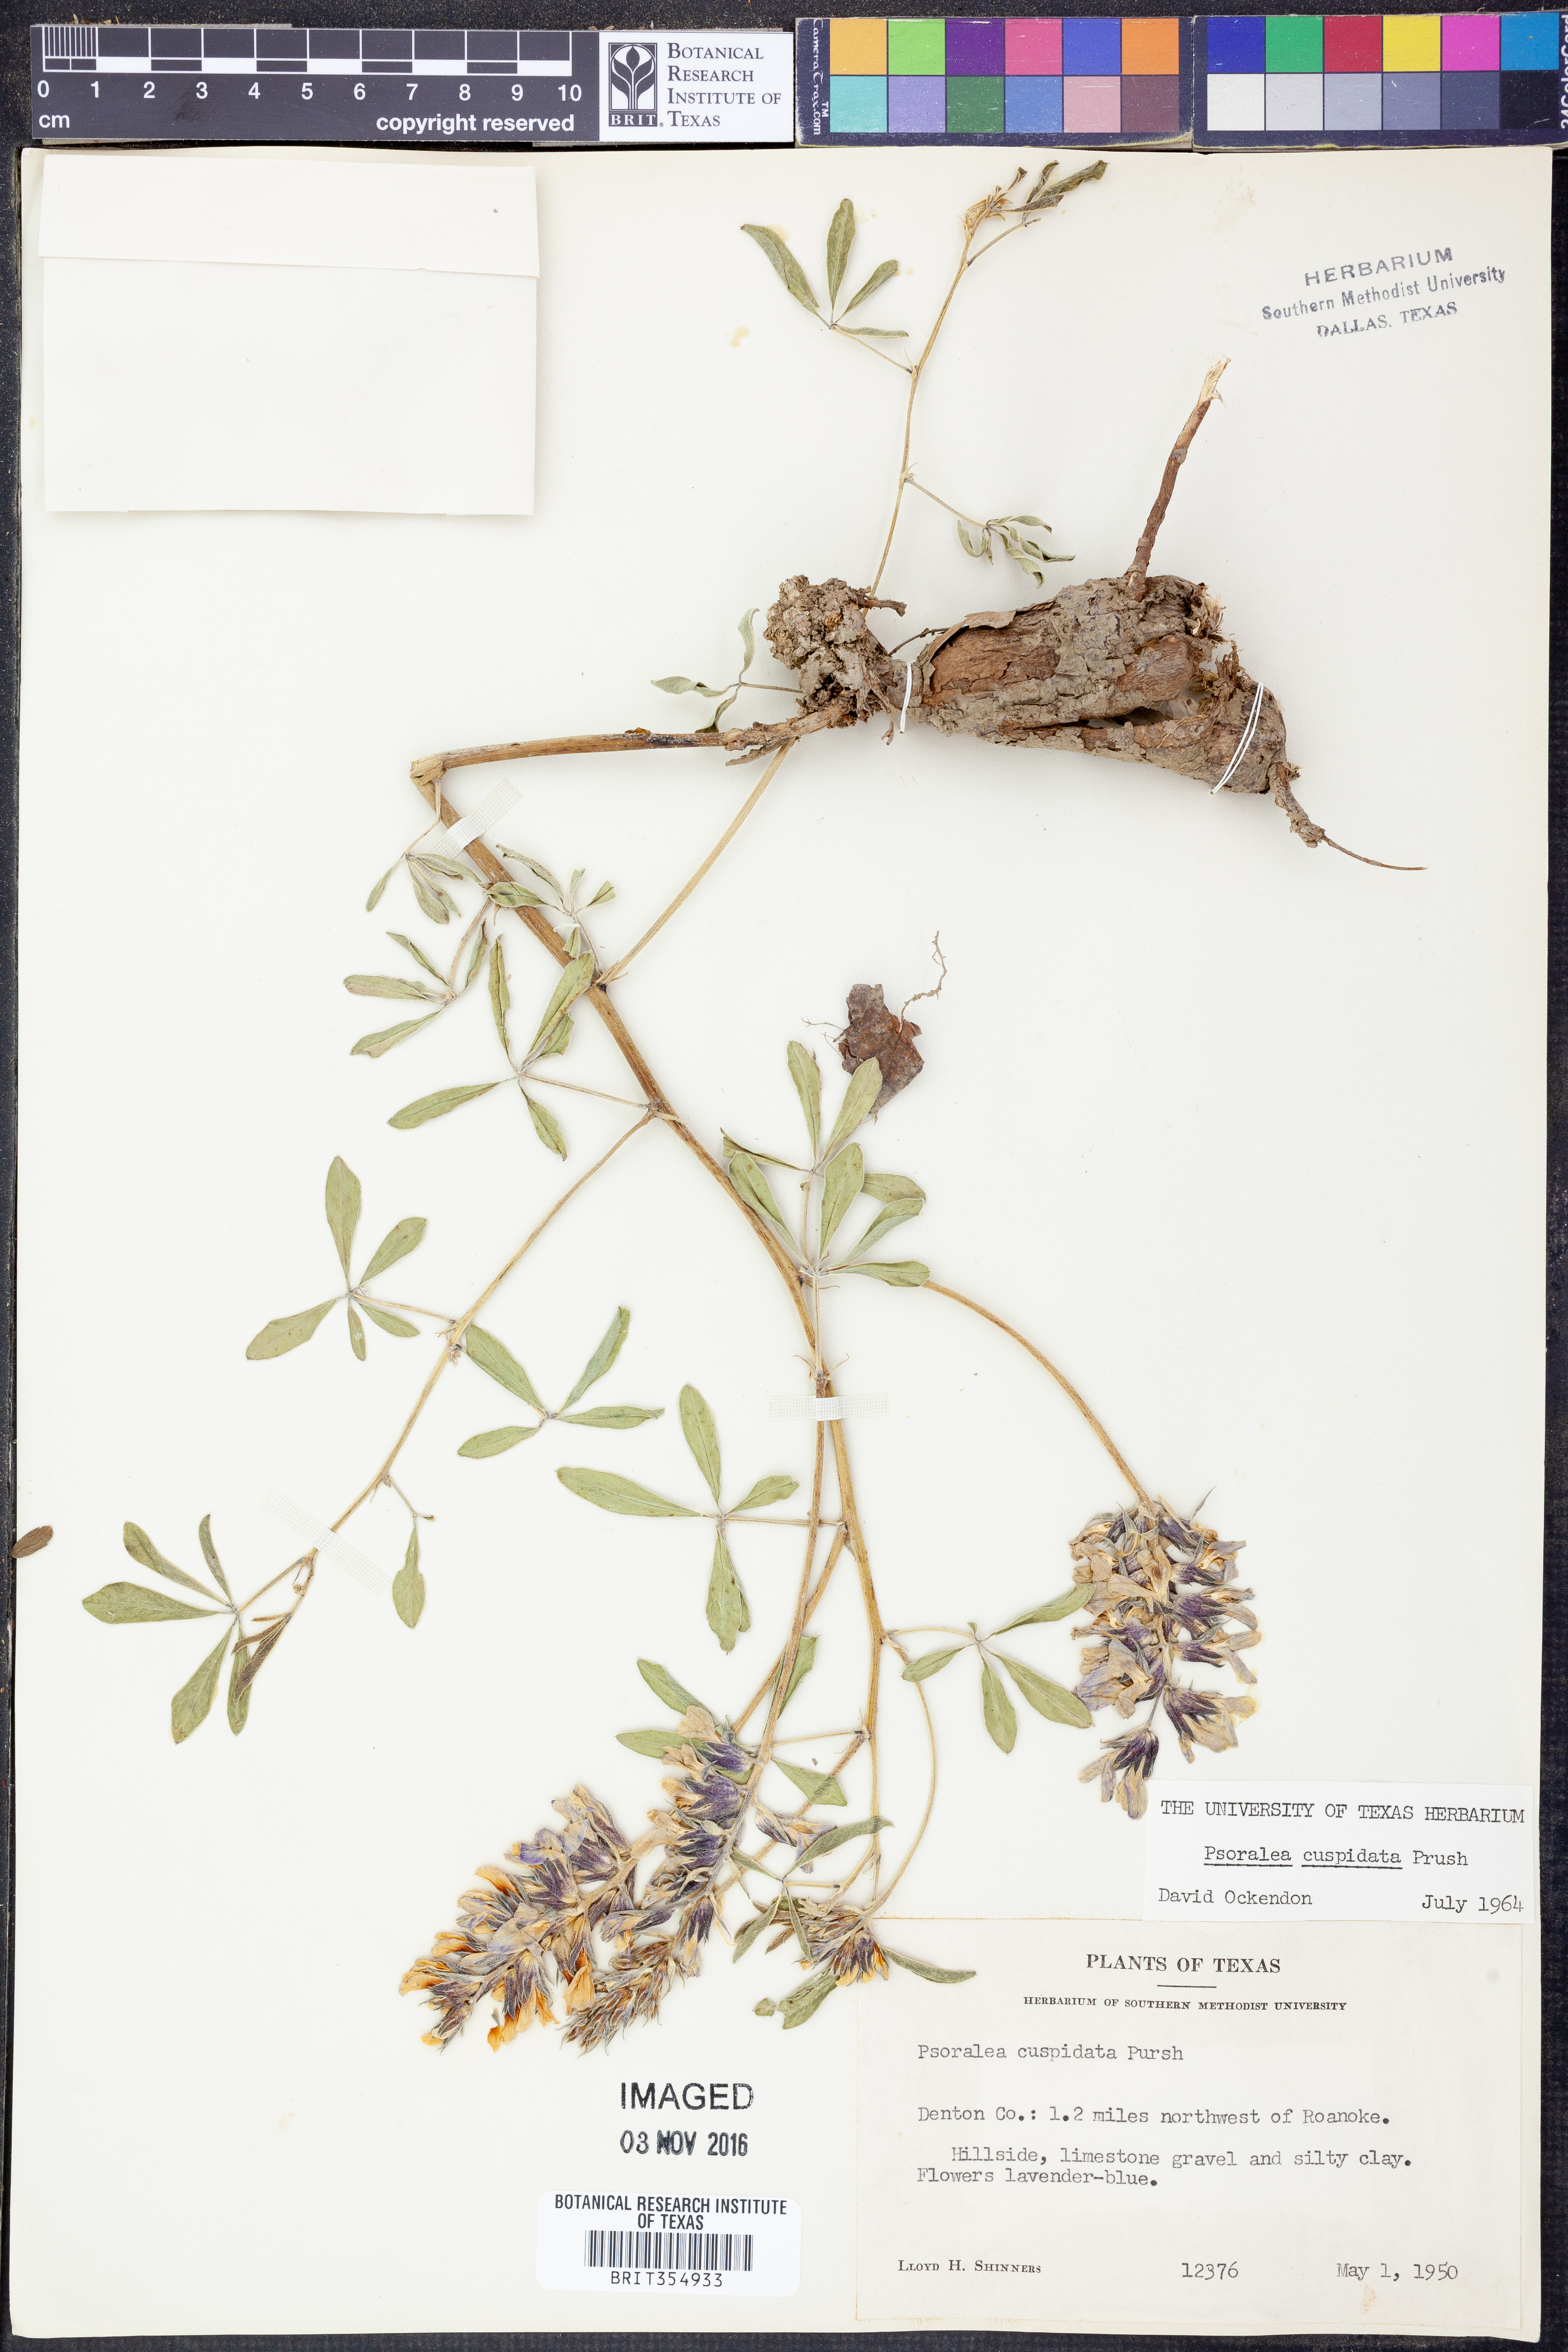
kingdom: Plantae
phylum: Tracheophyta
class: Magnoliopsida
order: Fabales
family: Fabaceae
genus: Pediomelum
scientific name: Pediomelum cuspidatum
